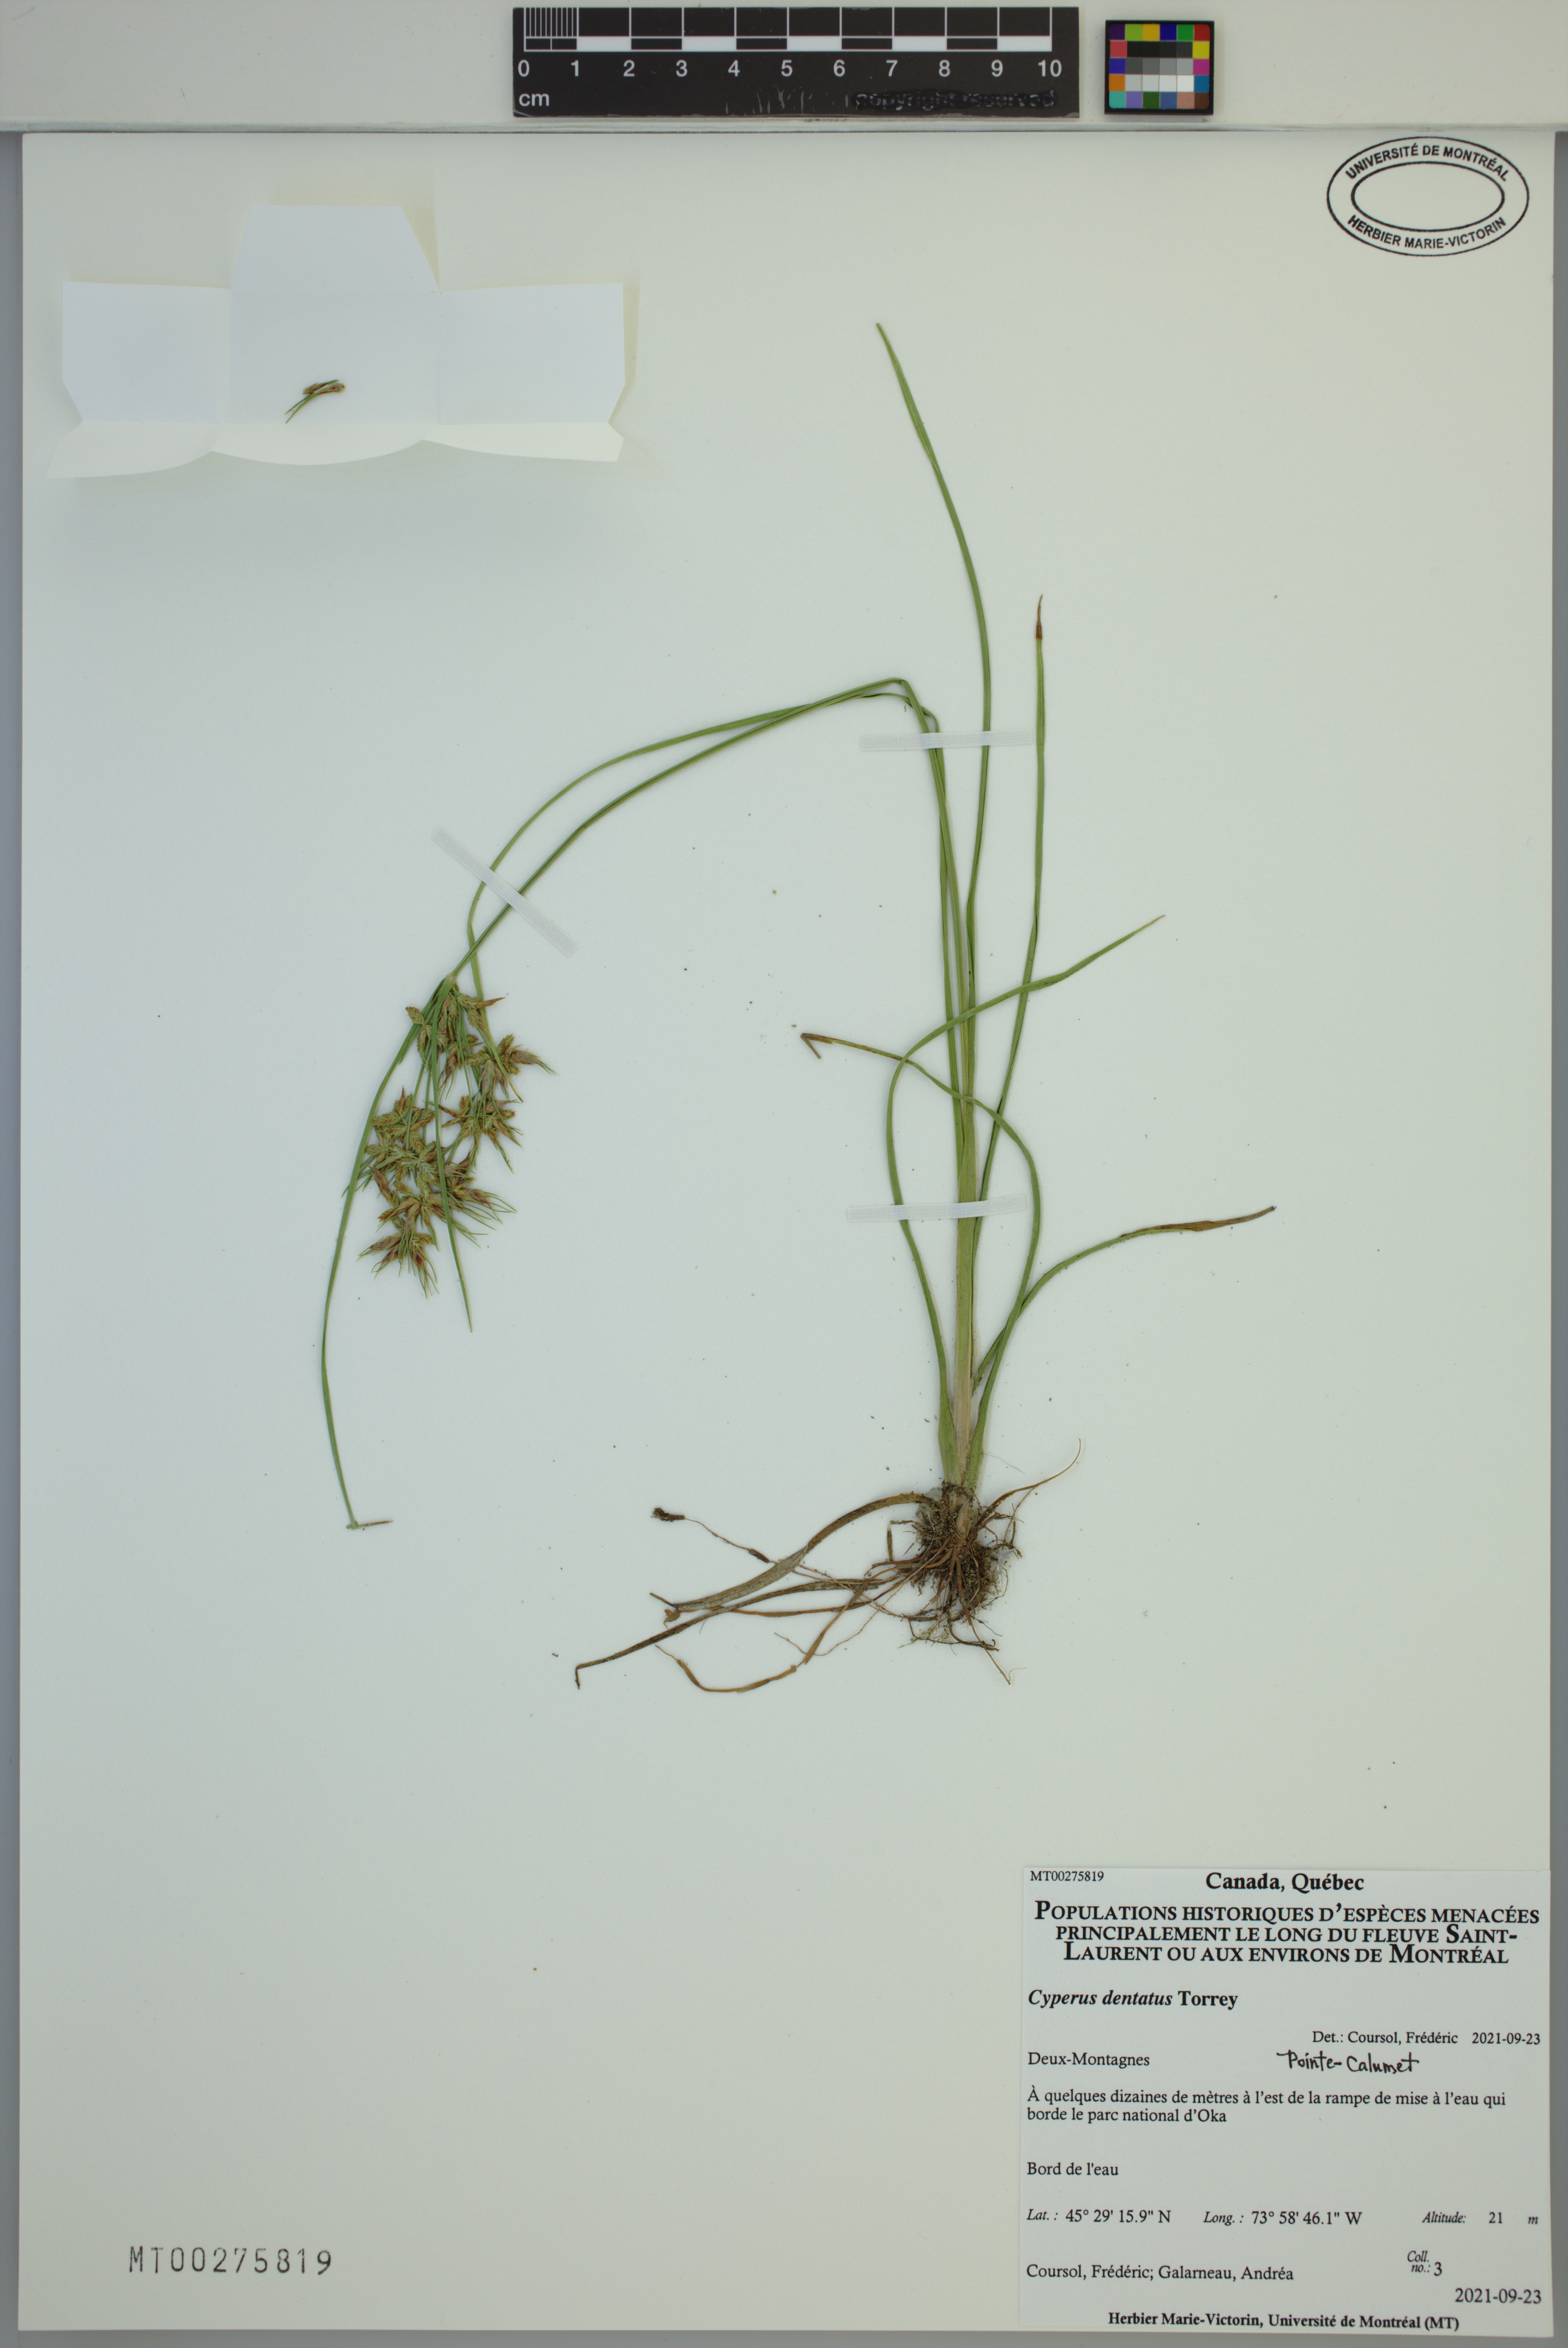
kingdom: Plantae
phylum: Tracheophyta
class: Liliopsida
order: Poales
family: Cyperaceae
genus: Cyperus
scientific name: Cyperus dentatus
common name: Dentate umbrella sedge
